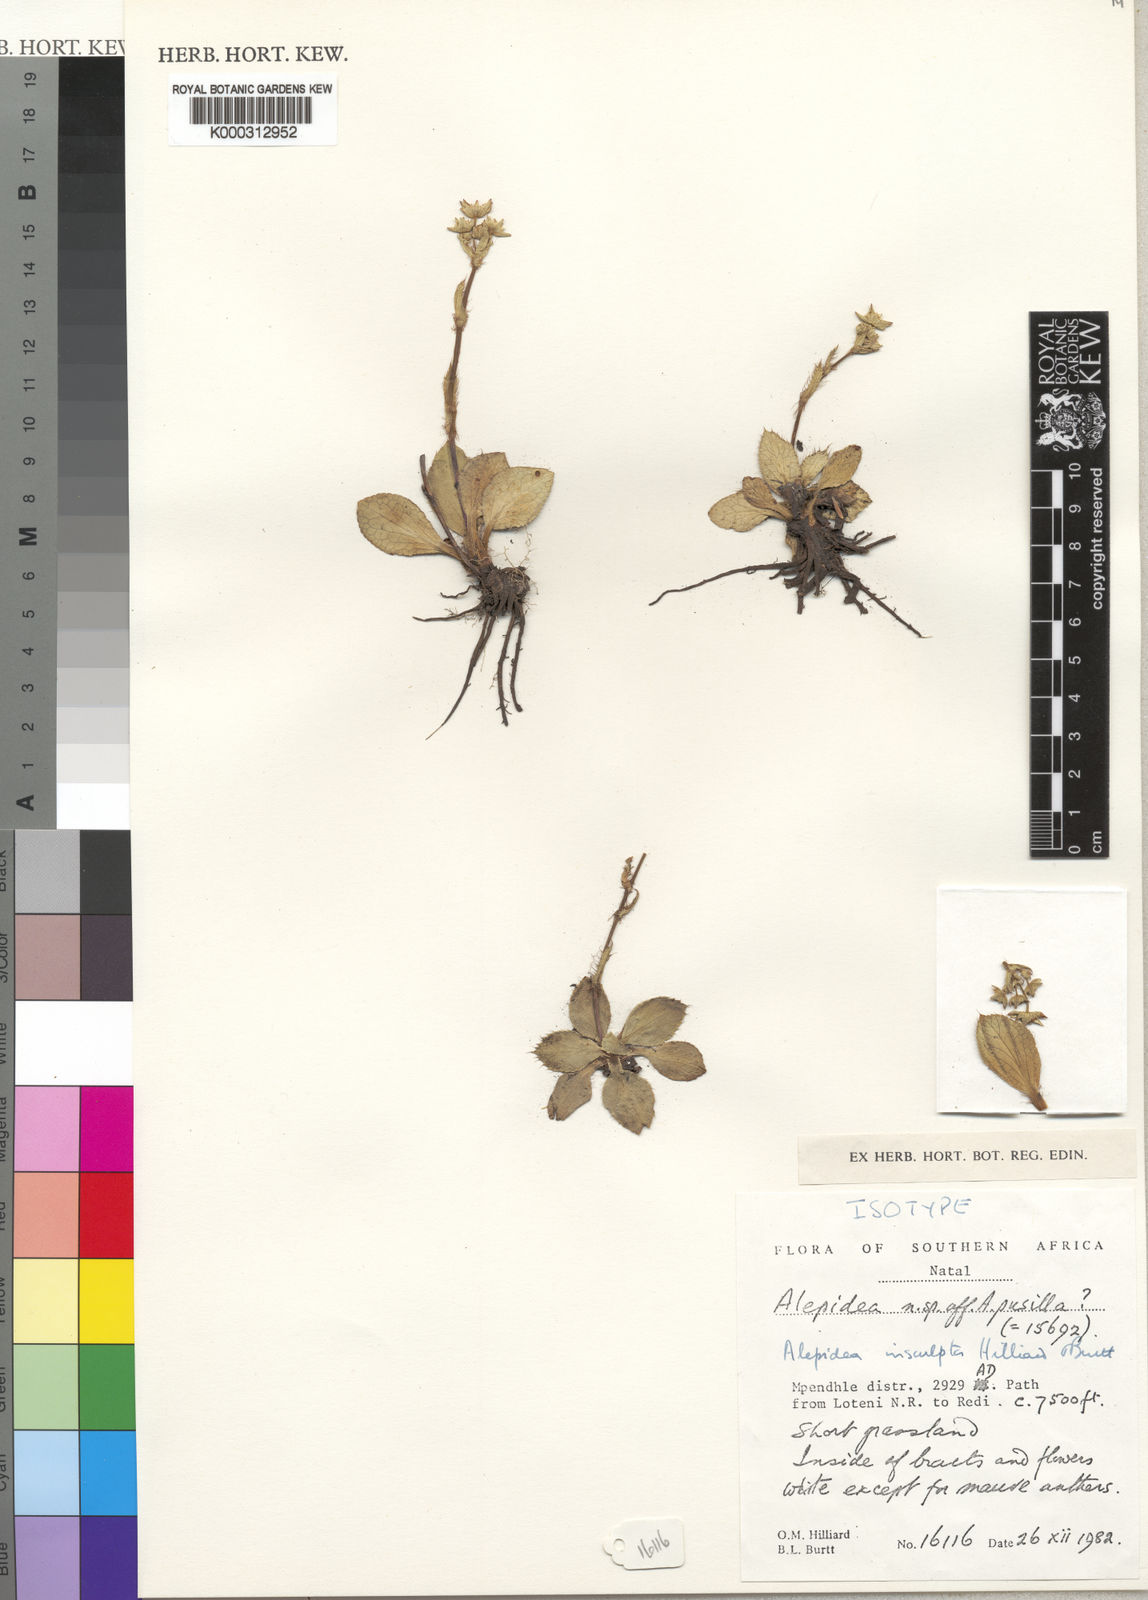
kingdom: Plantae
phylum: Tracheophyta
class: Magnoliopsida
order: Apiales
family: Apiaceae
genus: Alepidea
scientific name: Alepidea insculpta
